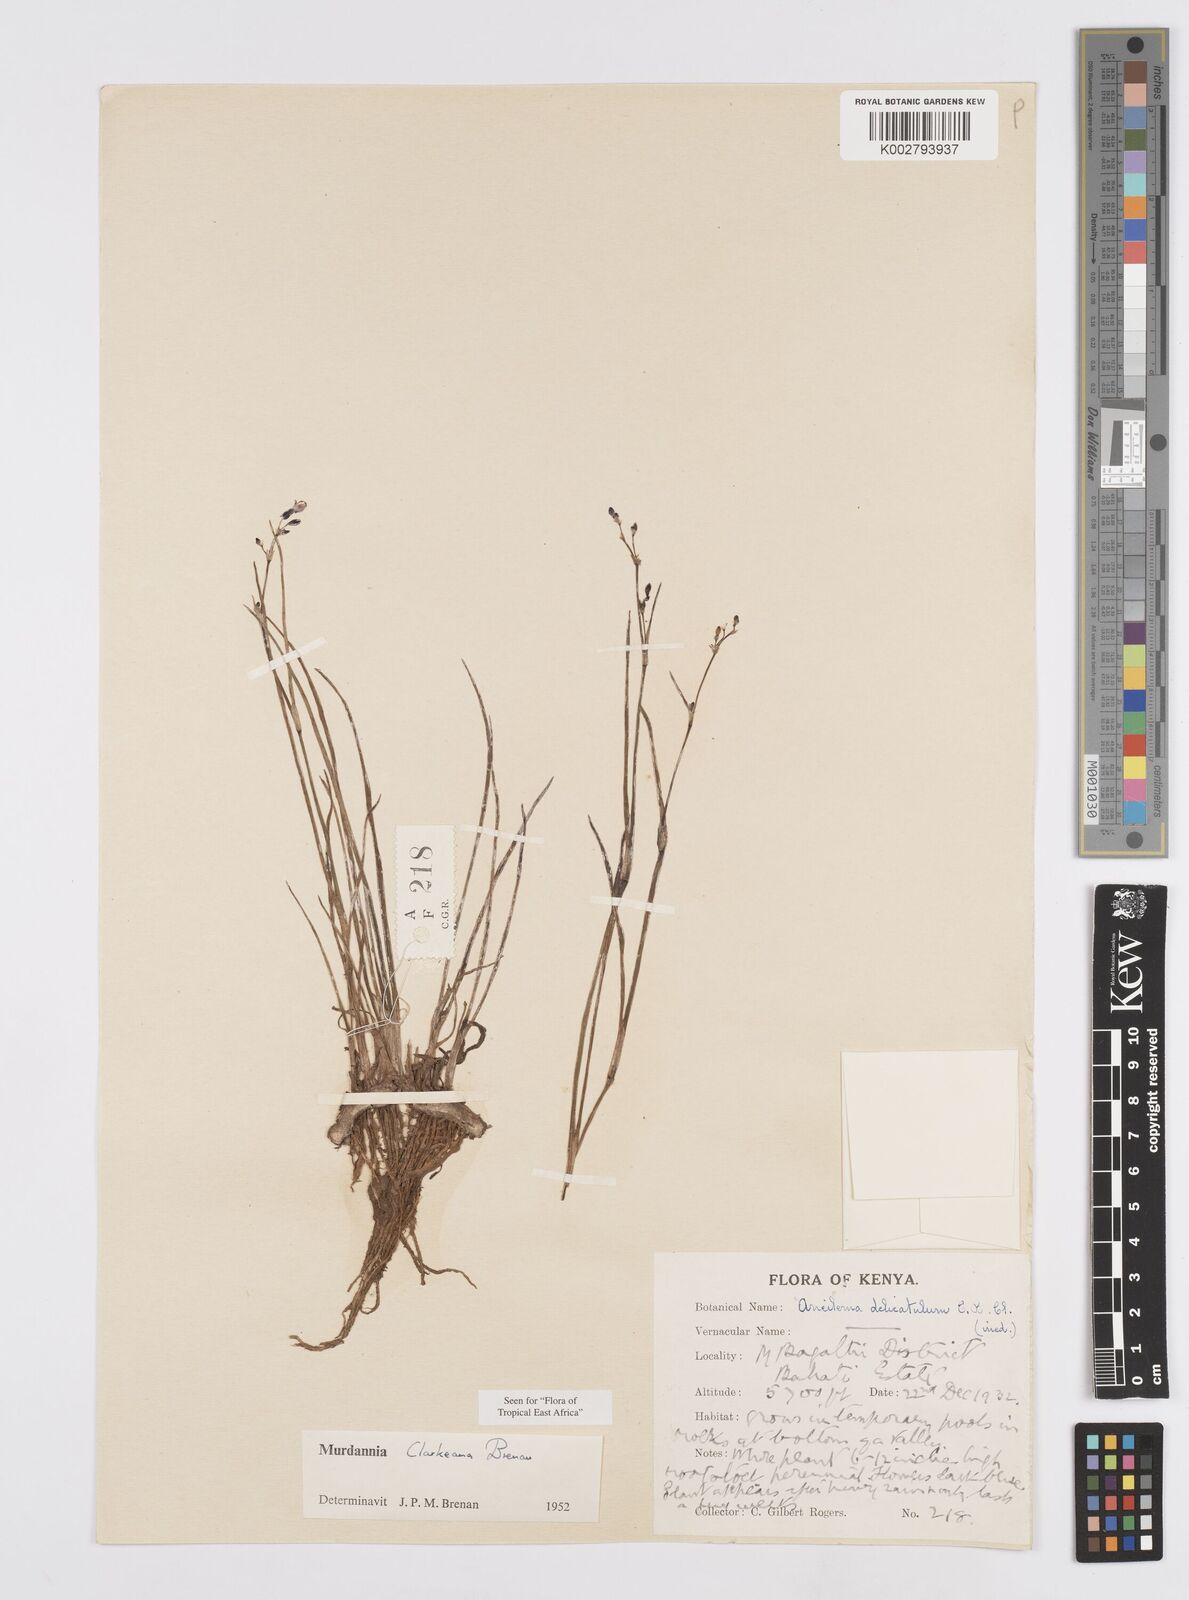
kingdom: Plantae
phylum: Tracheophyta
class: Liliopsida
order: Commelinales
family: Commelinaceae
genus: Murdannia
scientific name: Murdannia clarkeana
